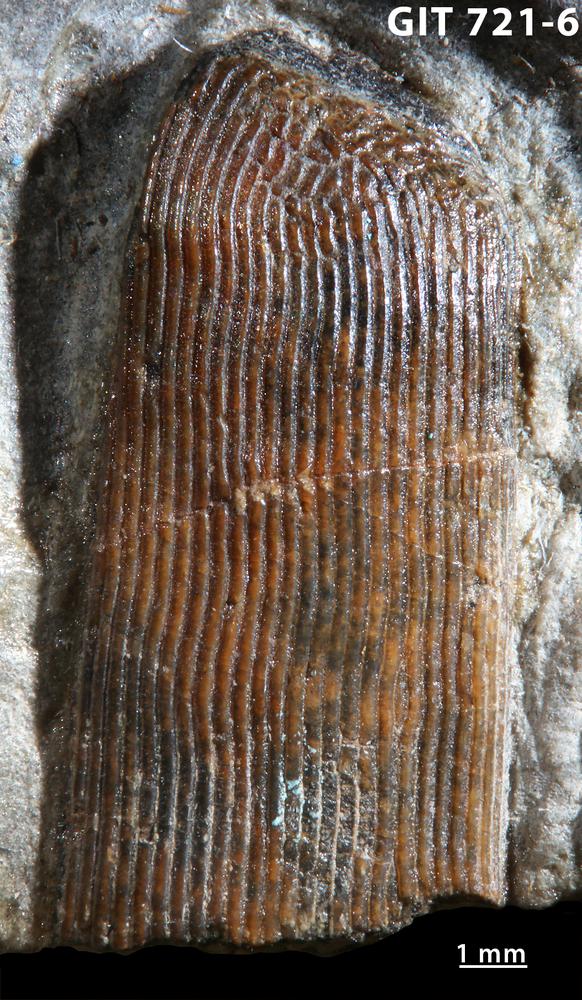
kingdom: Animalia
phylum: Chordata
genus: Archegonaspis
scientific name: Archegonaspis
